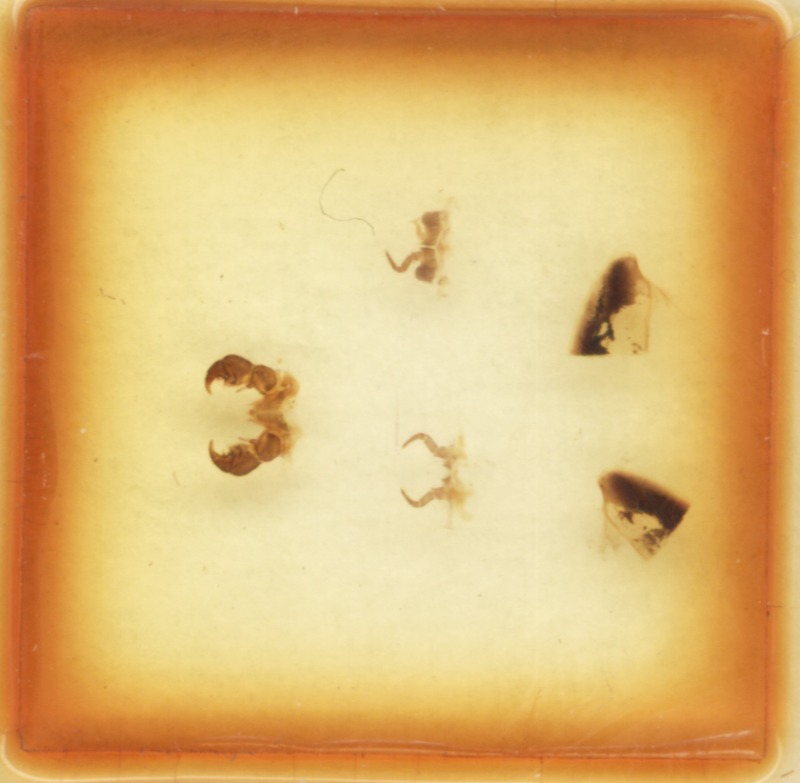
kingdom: Animalia
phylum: Arthropoda
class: Diplopoda
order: Glomerida
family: Glomeridae
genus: Glomeris
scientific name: Glomeris cingulata
